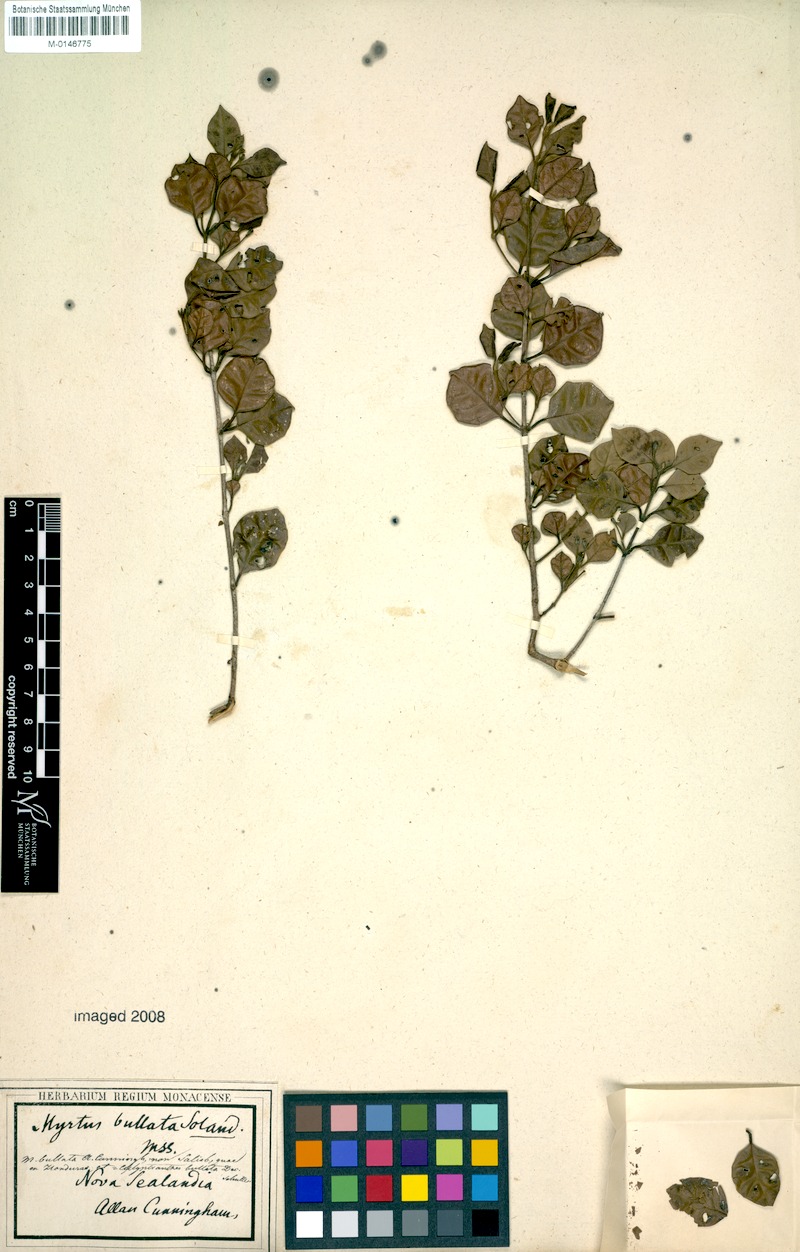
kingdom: Plantae
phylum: Tracheophyta
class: Magnoliopsida
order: Myrtales
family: Myrtaceae
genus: Lophomyrtus
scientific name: Lophomyrtus bullata
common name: Rama rama
